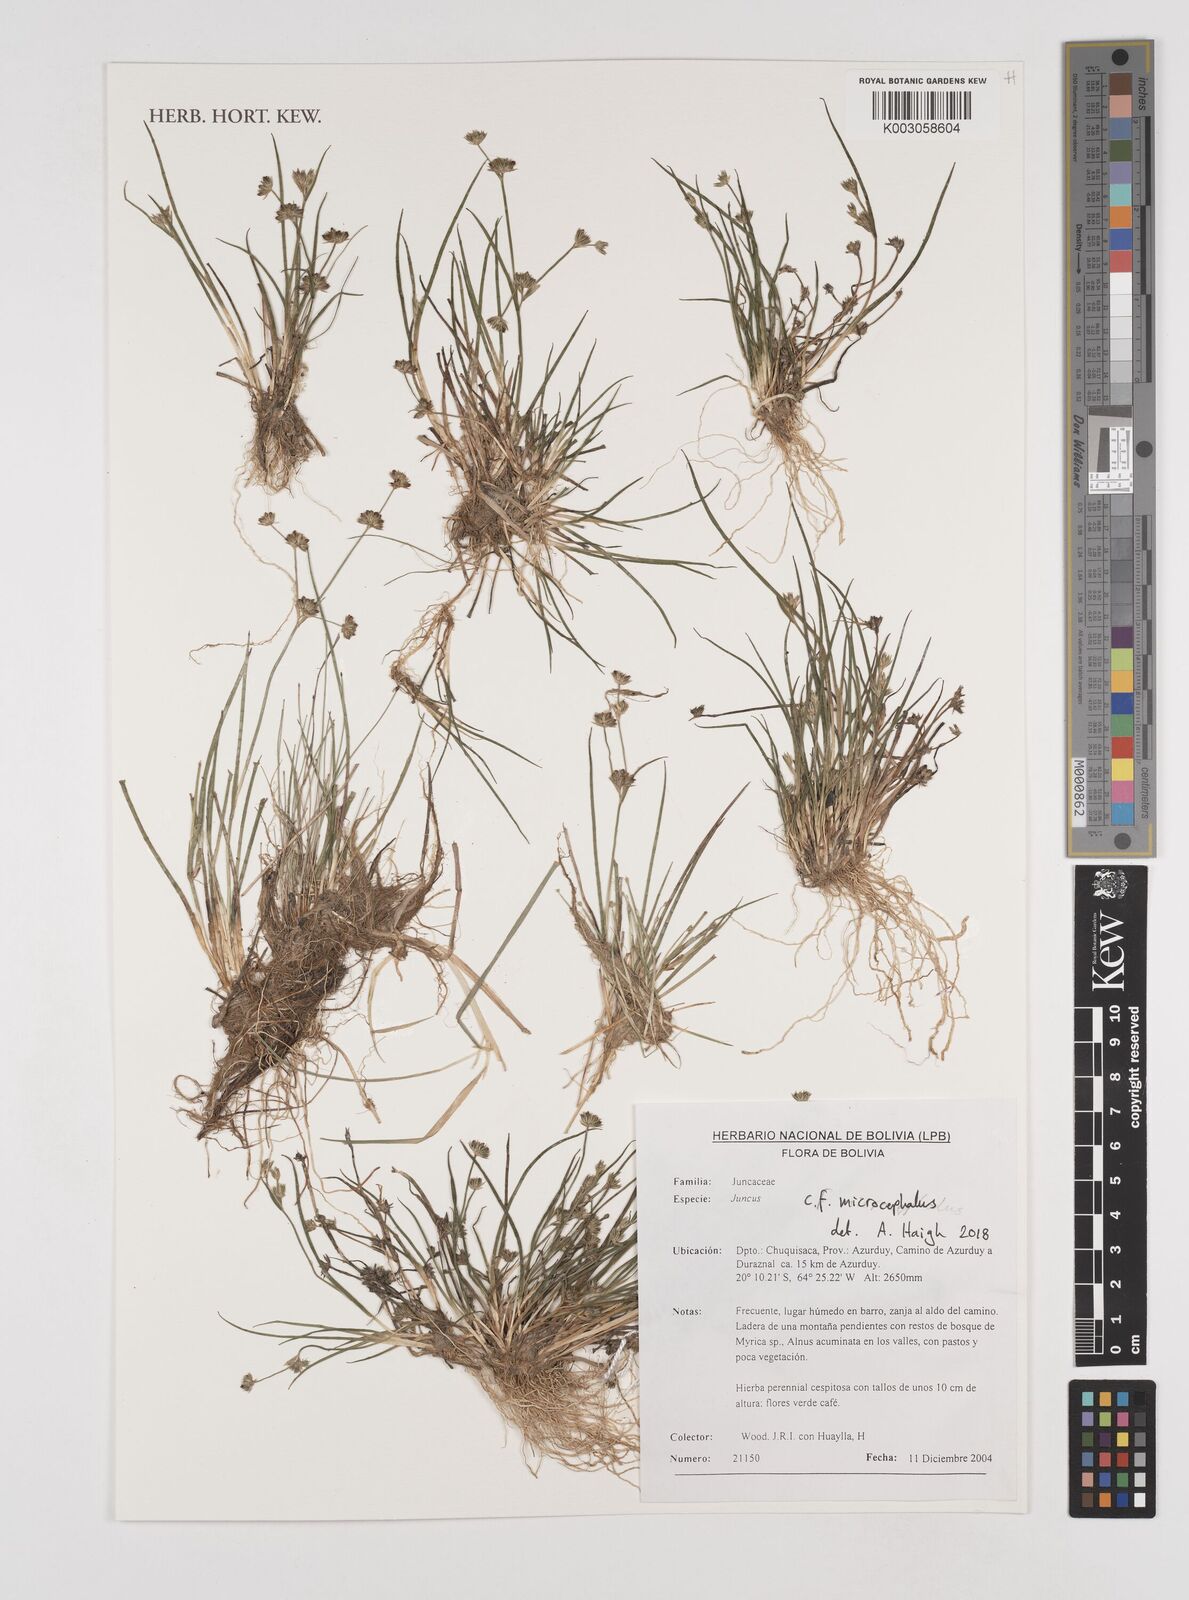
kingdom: Plantae
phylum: Tracheophyta
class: Liliopsida
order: Poales
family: Juncaceae
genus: Juncus
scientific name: Juncus
